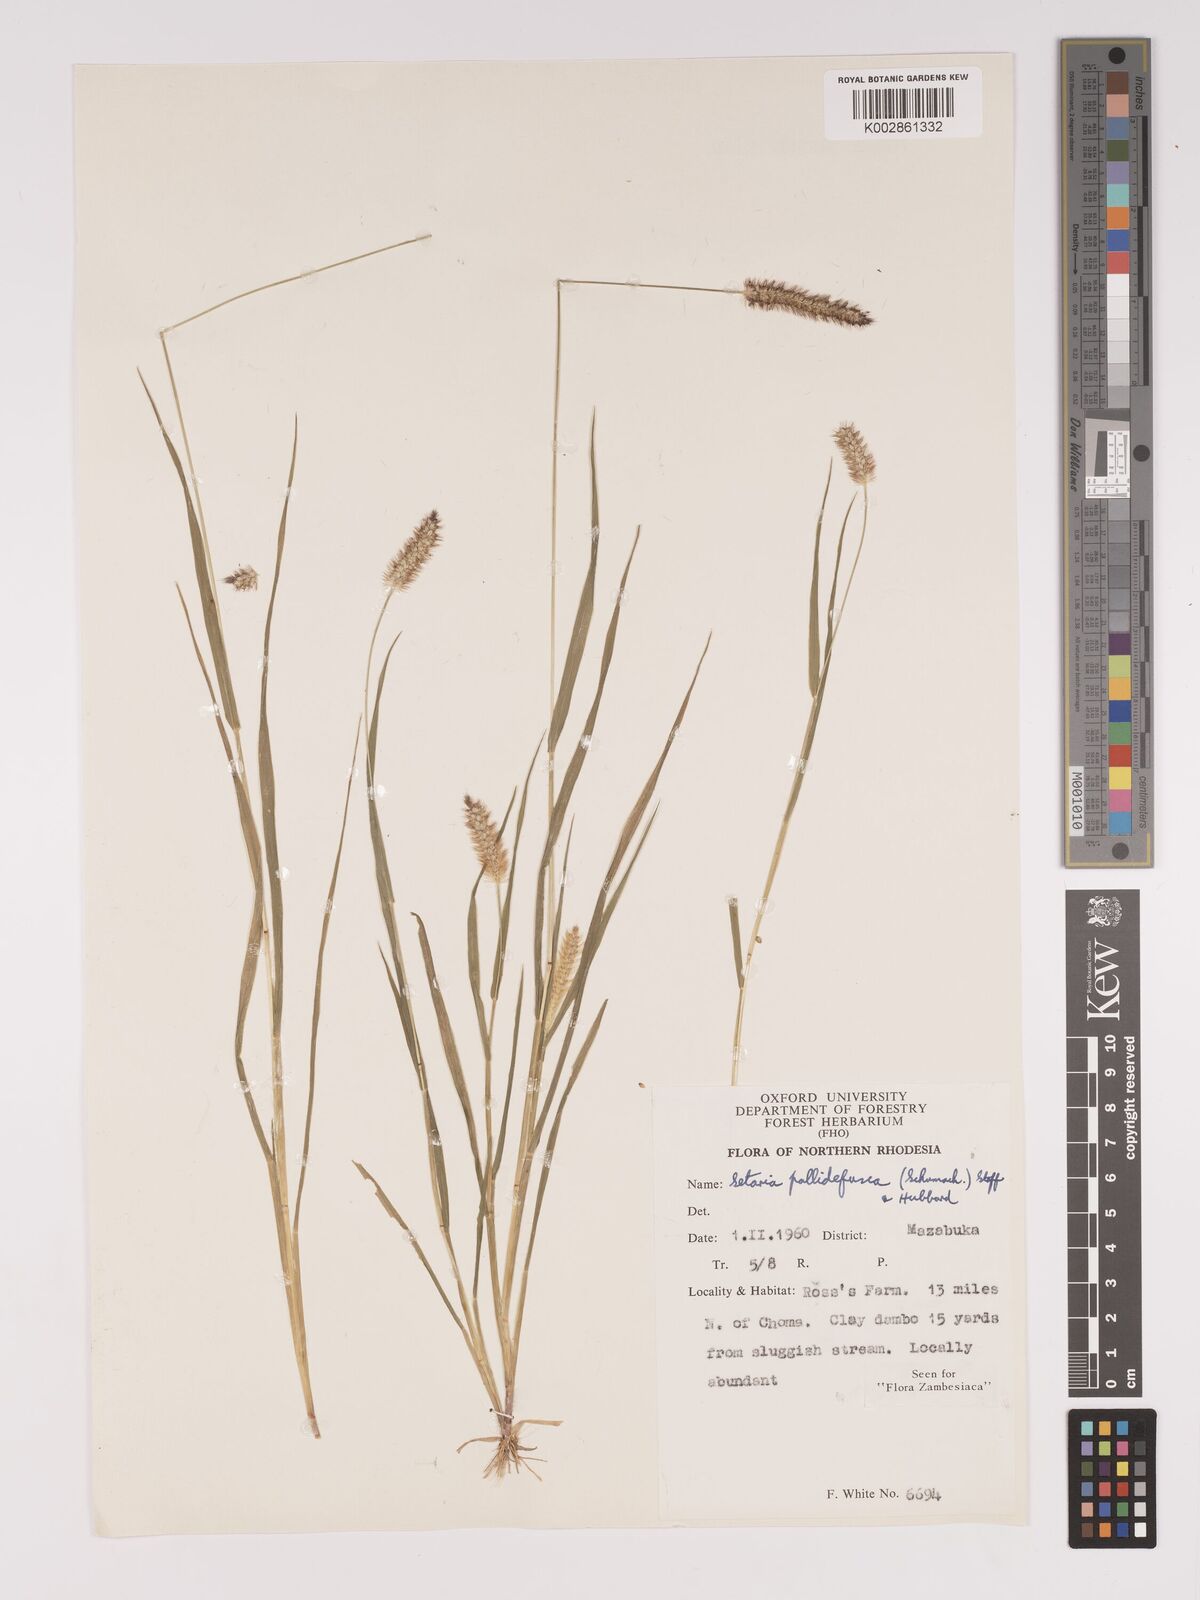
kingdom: Plantae
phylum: Tracheophyta
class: Liliopsida
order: Poales
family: Poaceae
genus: Setaria
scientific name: Setaria pumila
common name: Yellow bristle-grass
